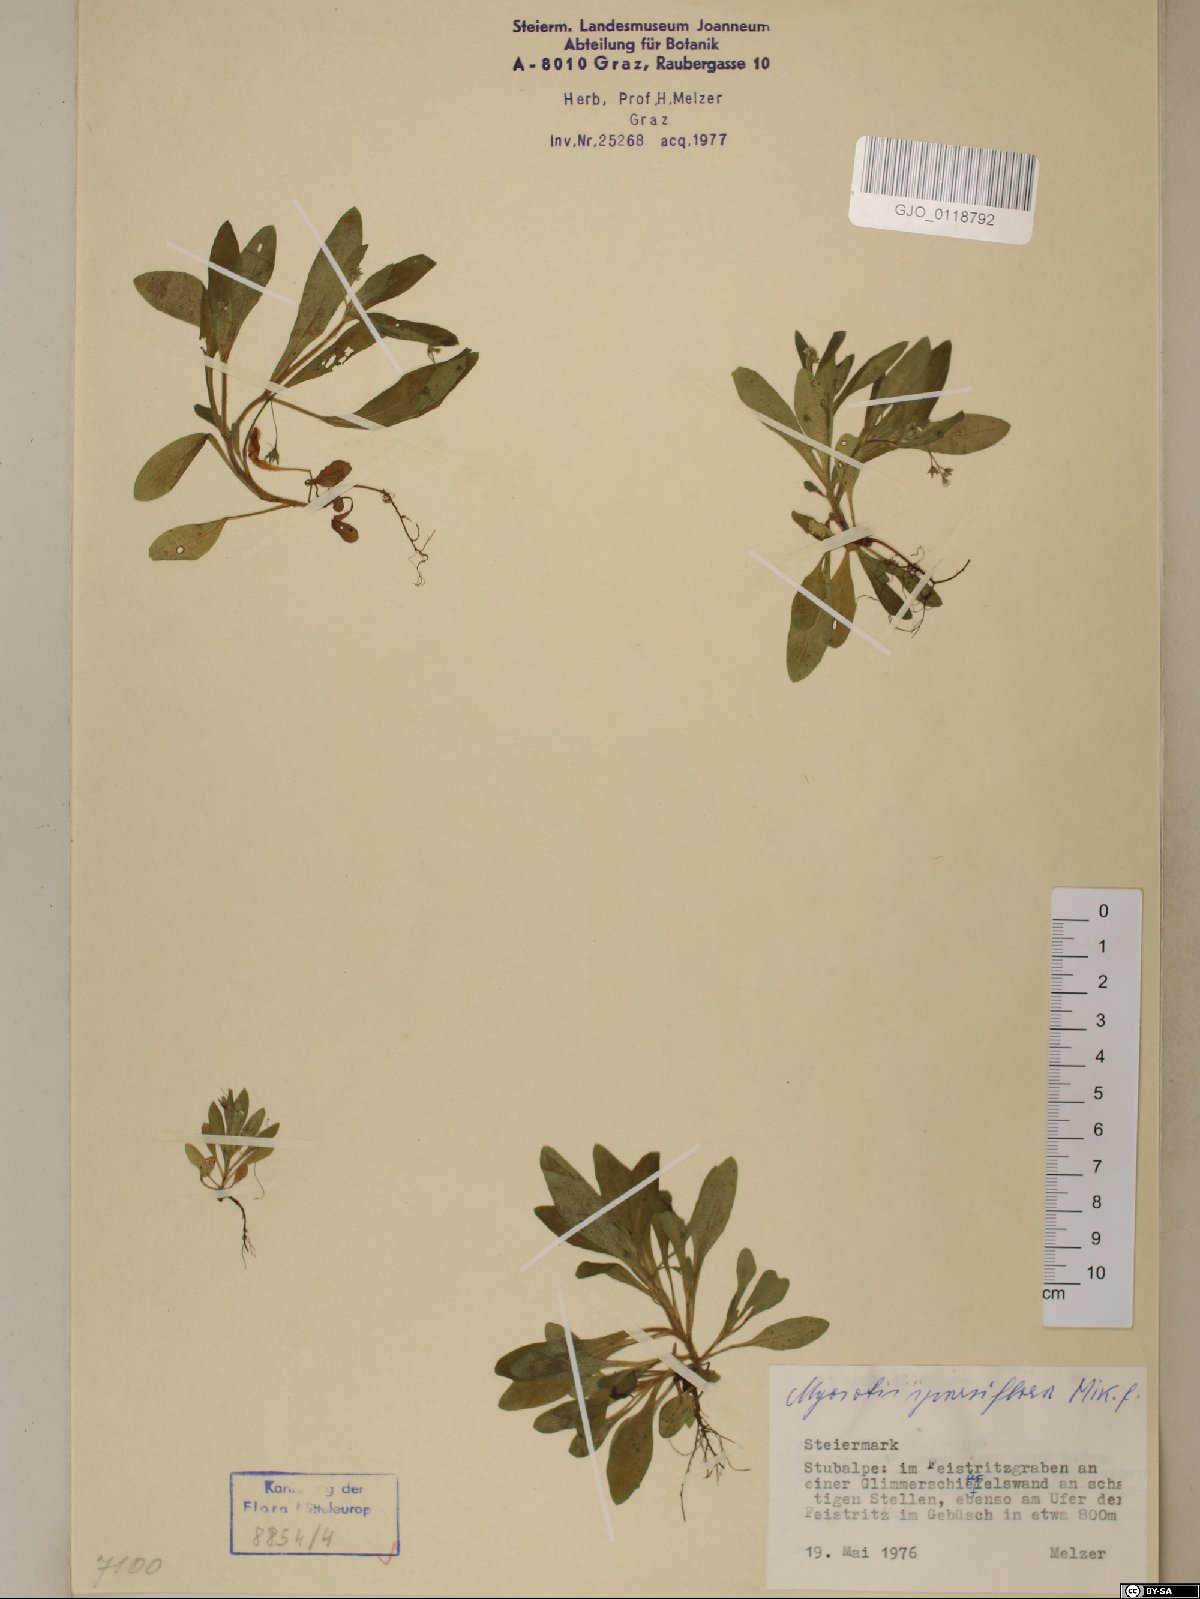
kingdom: Plantae
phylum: Tracheophyta
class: Magnoliopsida
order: Boraginales
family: Boraginaceae
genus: Myosotis
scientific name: Myosotis sparsiflora
